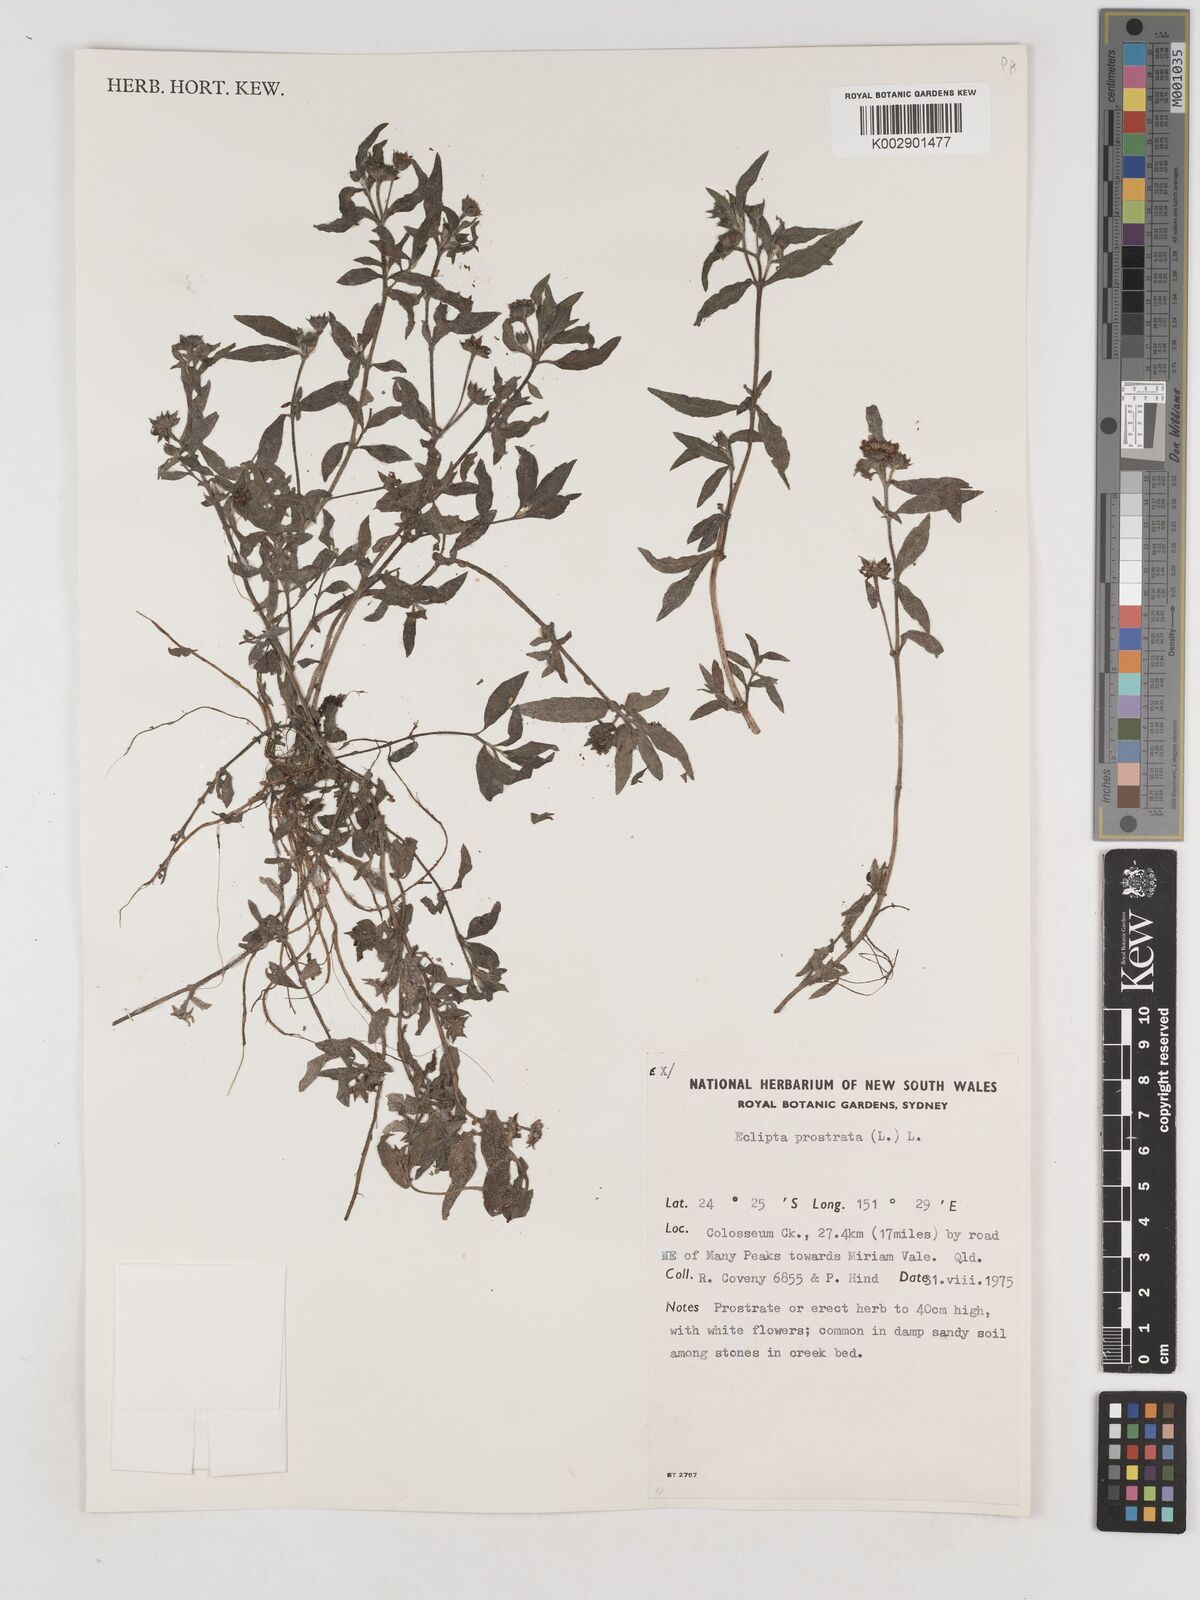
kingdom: Plantae
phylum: Tracheophyta
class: Magnoliopsida
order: Asterales
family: Asteraceae
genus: Eclipta
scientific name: Eclipta prostrata
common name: False daisy
